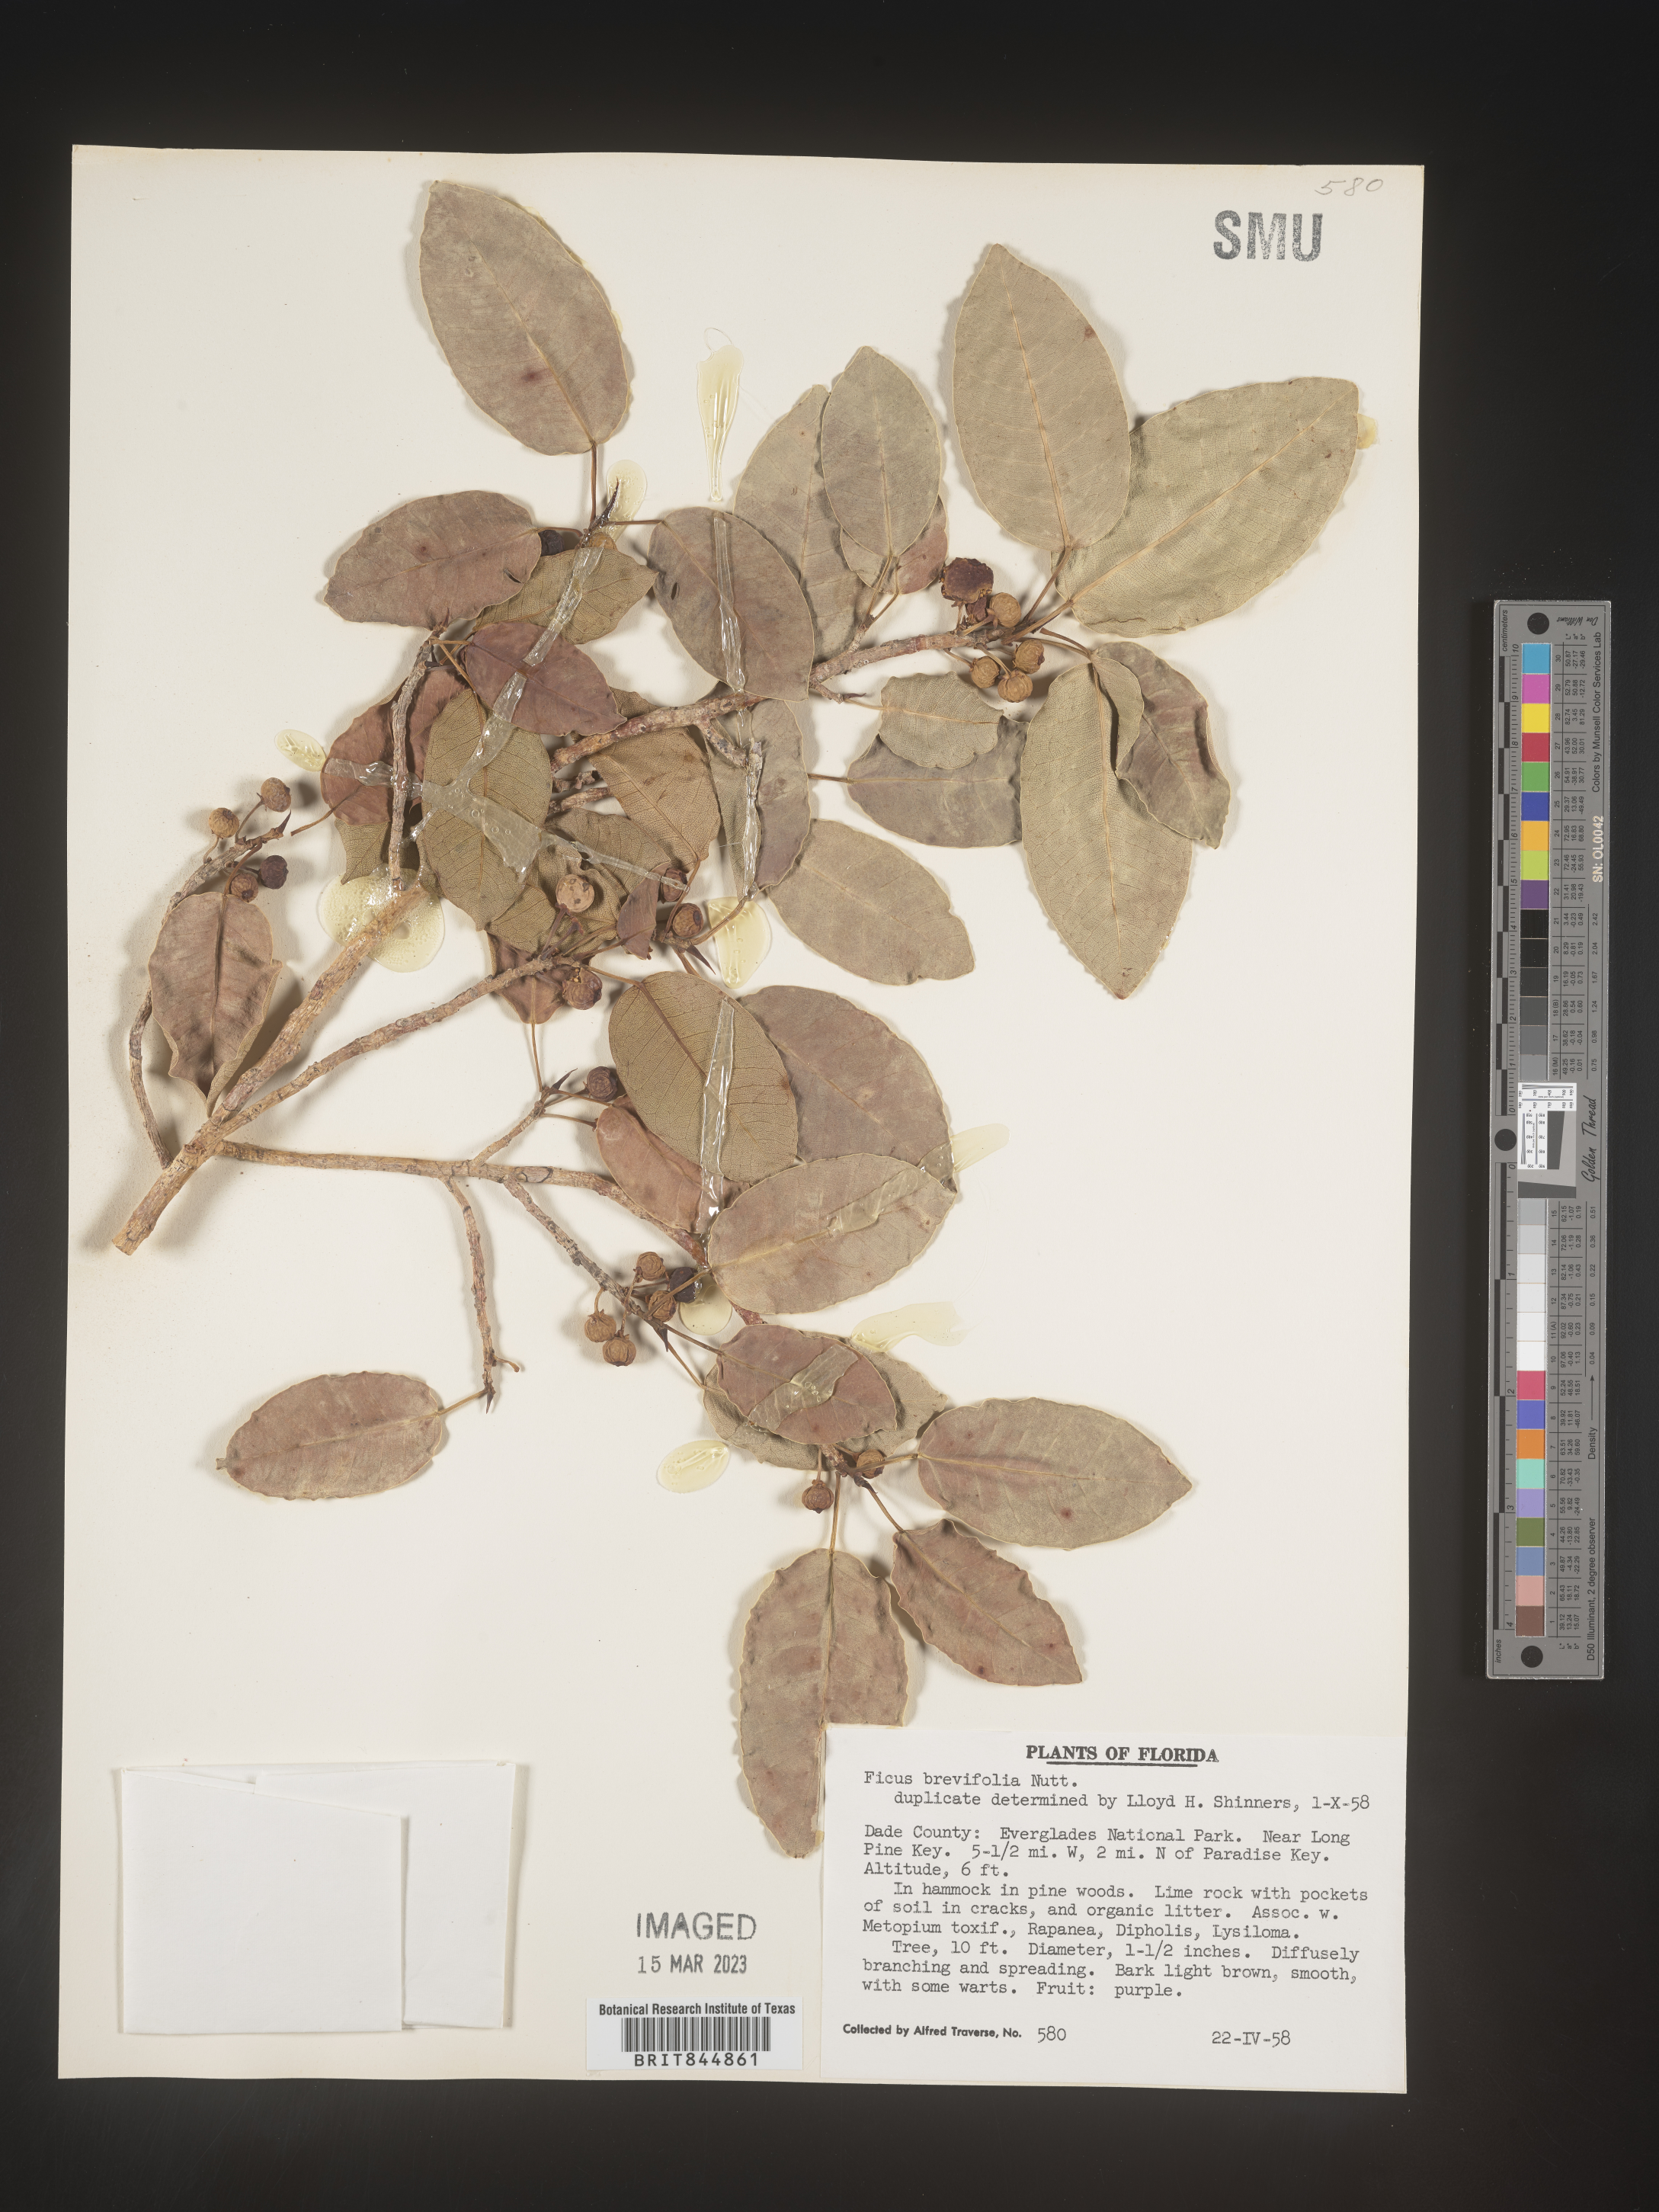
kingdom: Plantae
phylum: Tracheophyta
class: Magnoliopsida
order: Rosales
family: Moraceae
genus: Ficus
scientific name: Ficus
